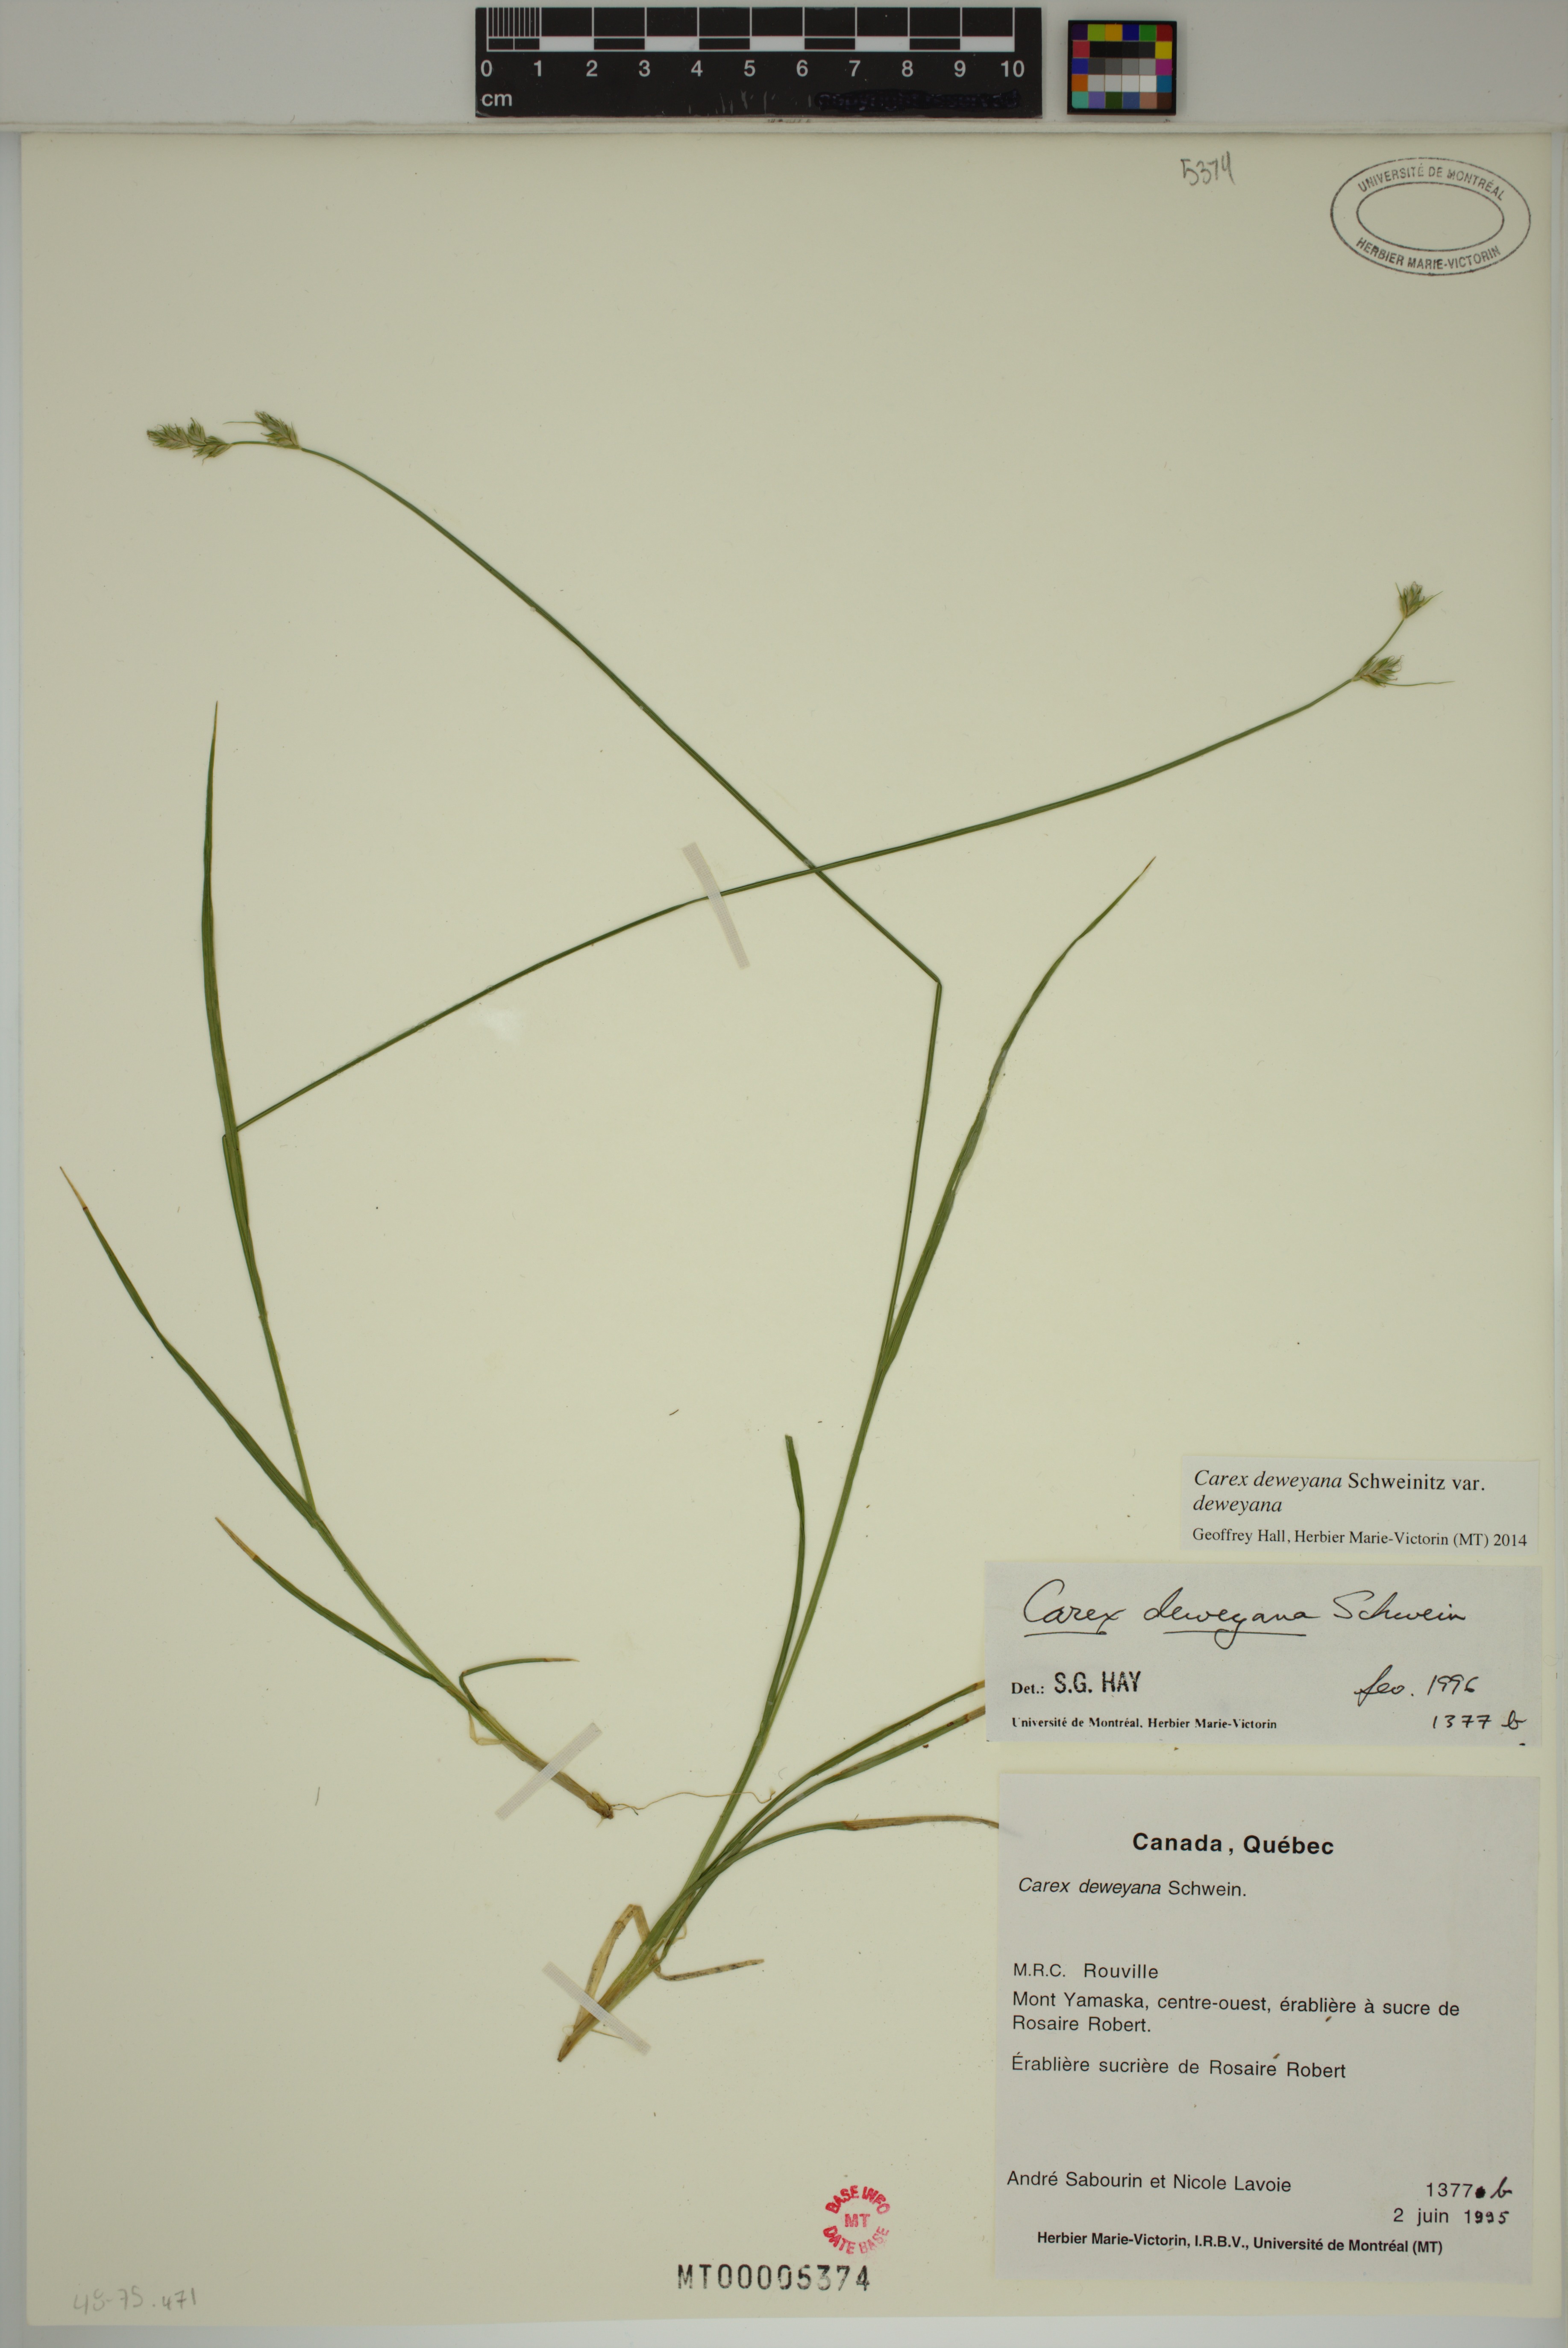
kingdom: Plantae
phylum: Tracheophyta
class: Liliopsida
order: Poales
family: Cyperaceae
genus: Carex
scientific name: Carex deweyana
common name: Dewey's sedge
